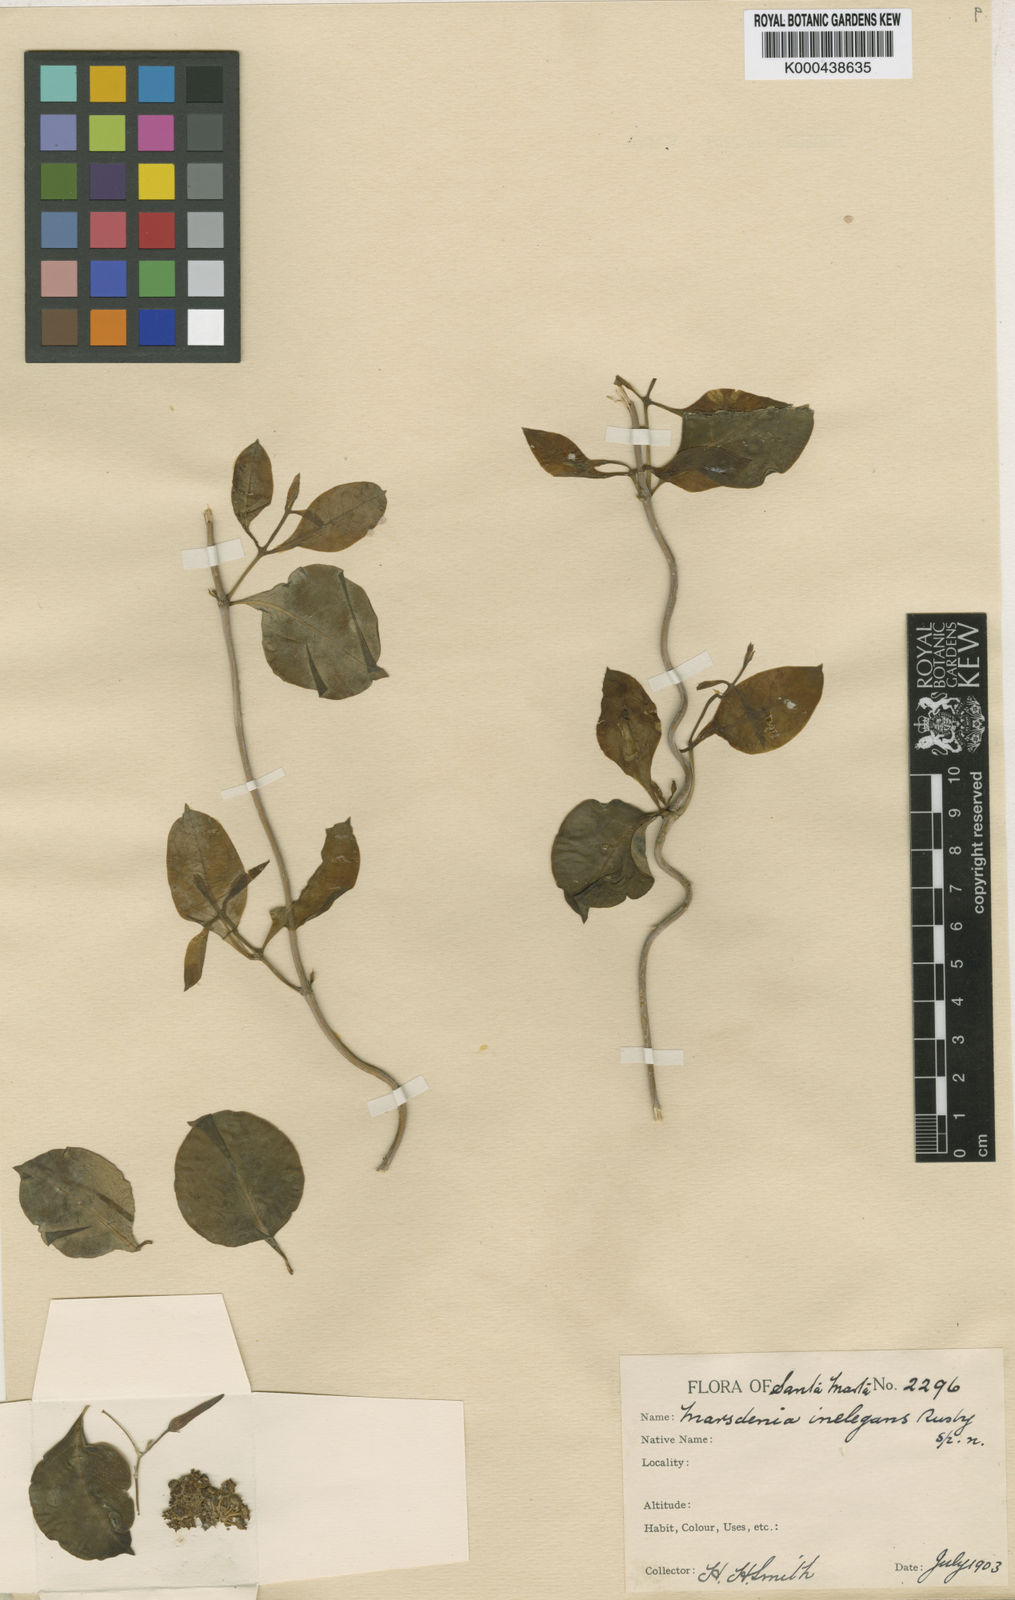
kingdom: Plantae
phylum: Tracheophyta
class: Magnoliopsida
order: Gentianales
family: Apocynaceae
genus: Ruehssia
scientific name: Ruehssia condensiflora
